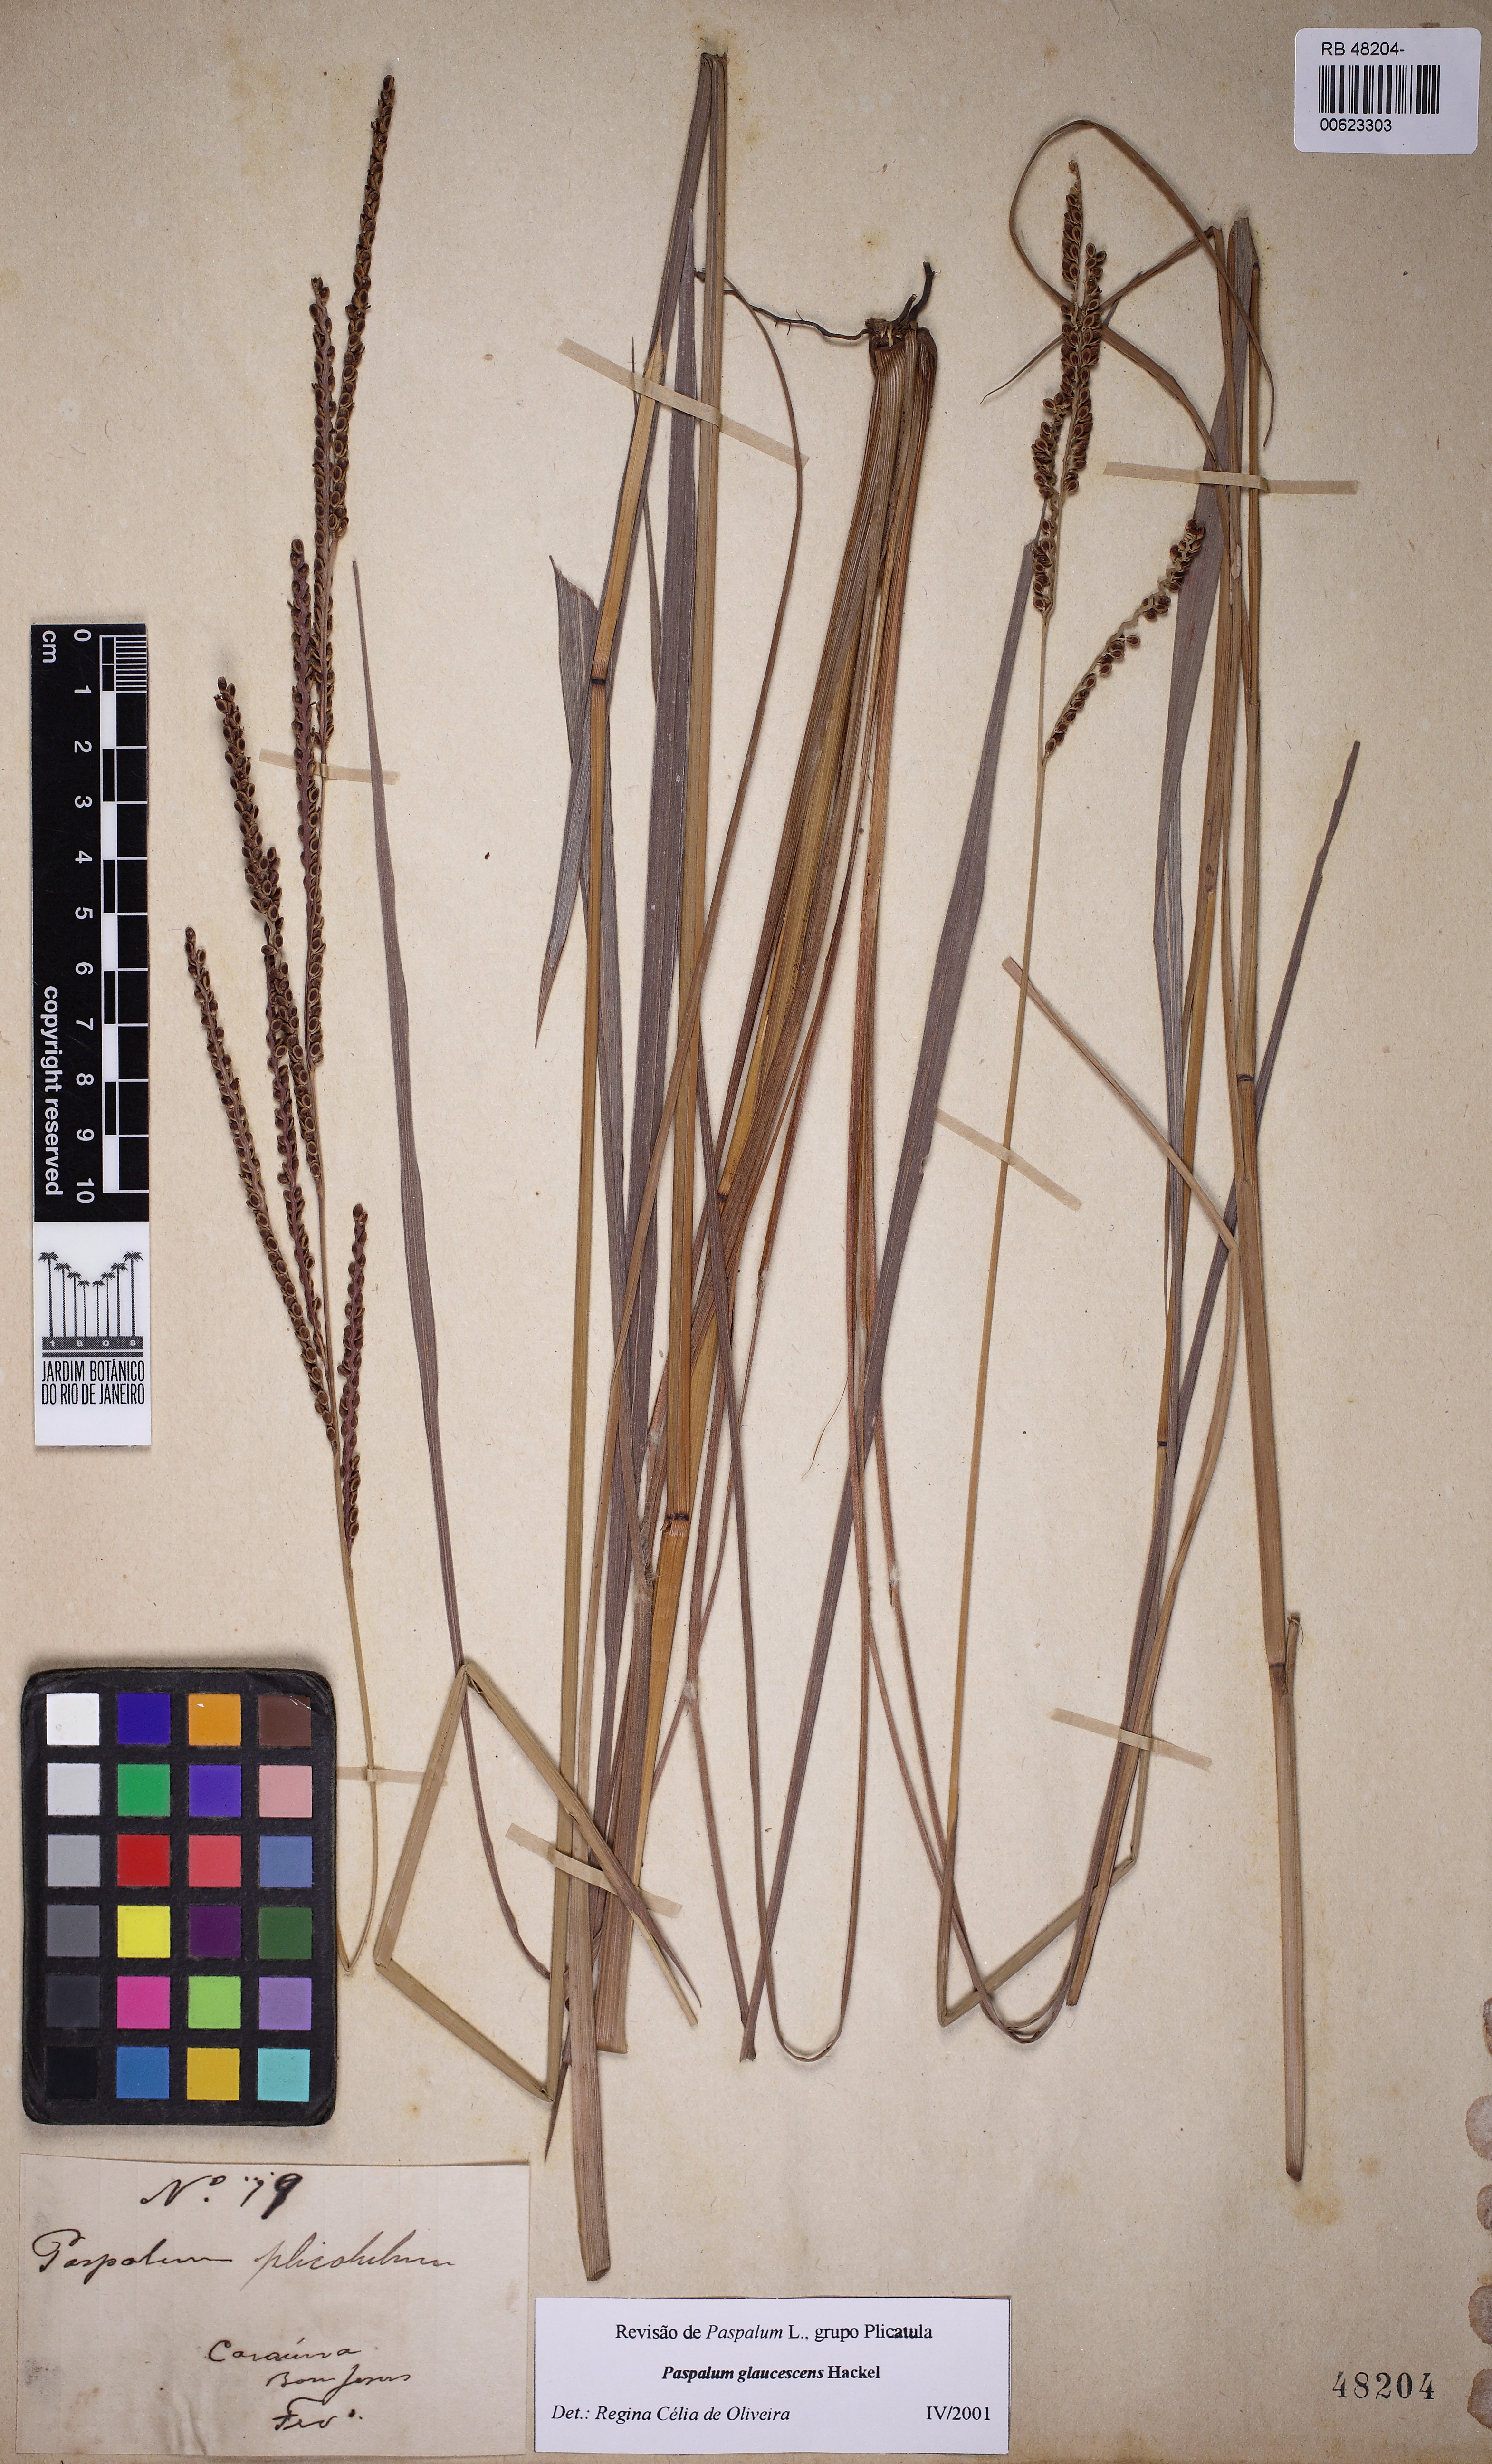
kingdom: Plantae
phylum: Tracheophyta
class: Liliopsida
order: Poales
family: Poaceae
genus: Paspalum
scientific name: Paspalum glaucescens
